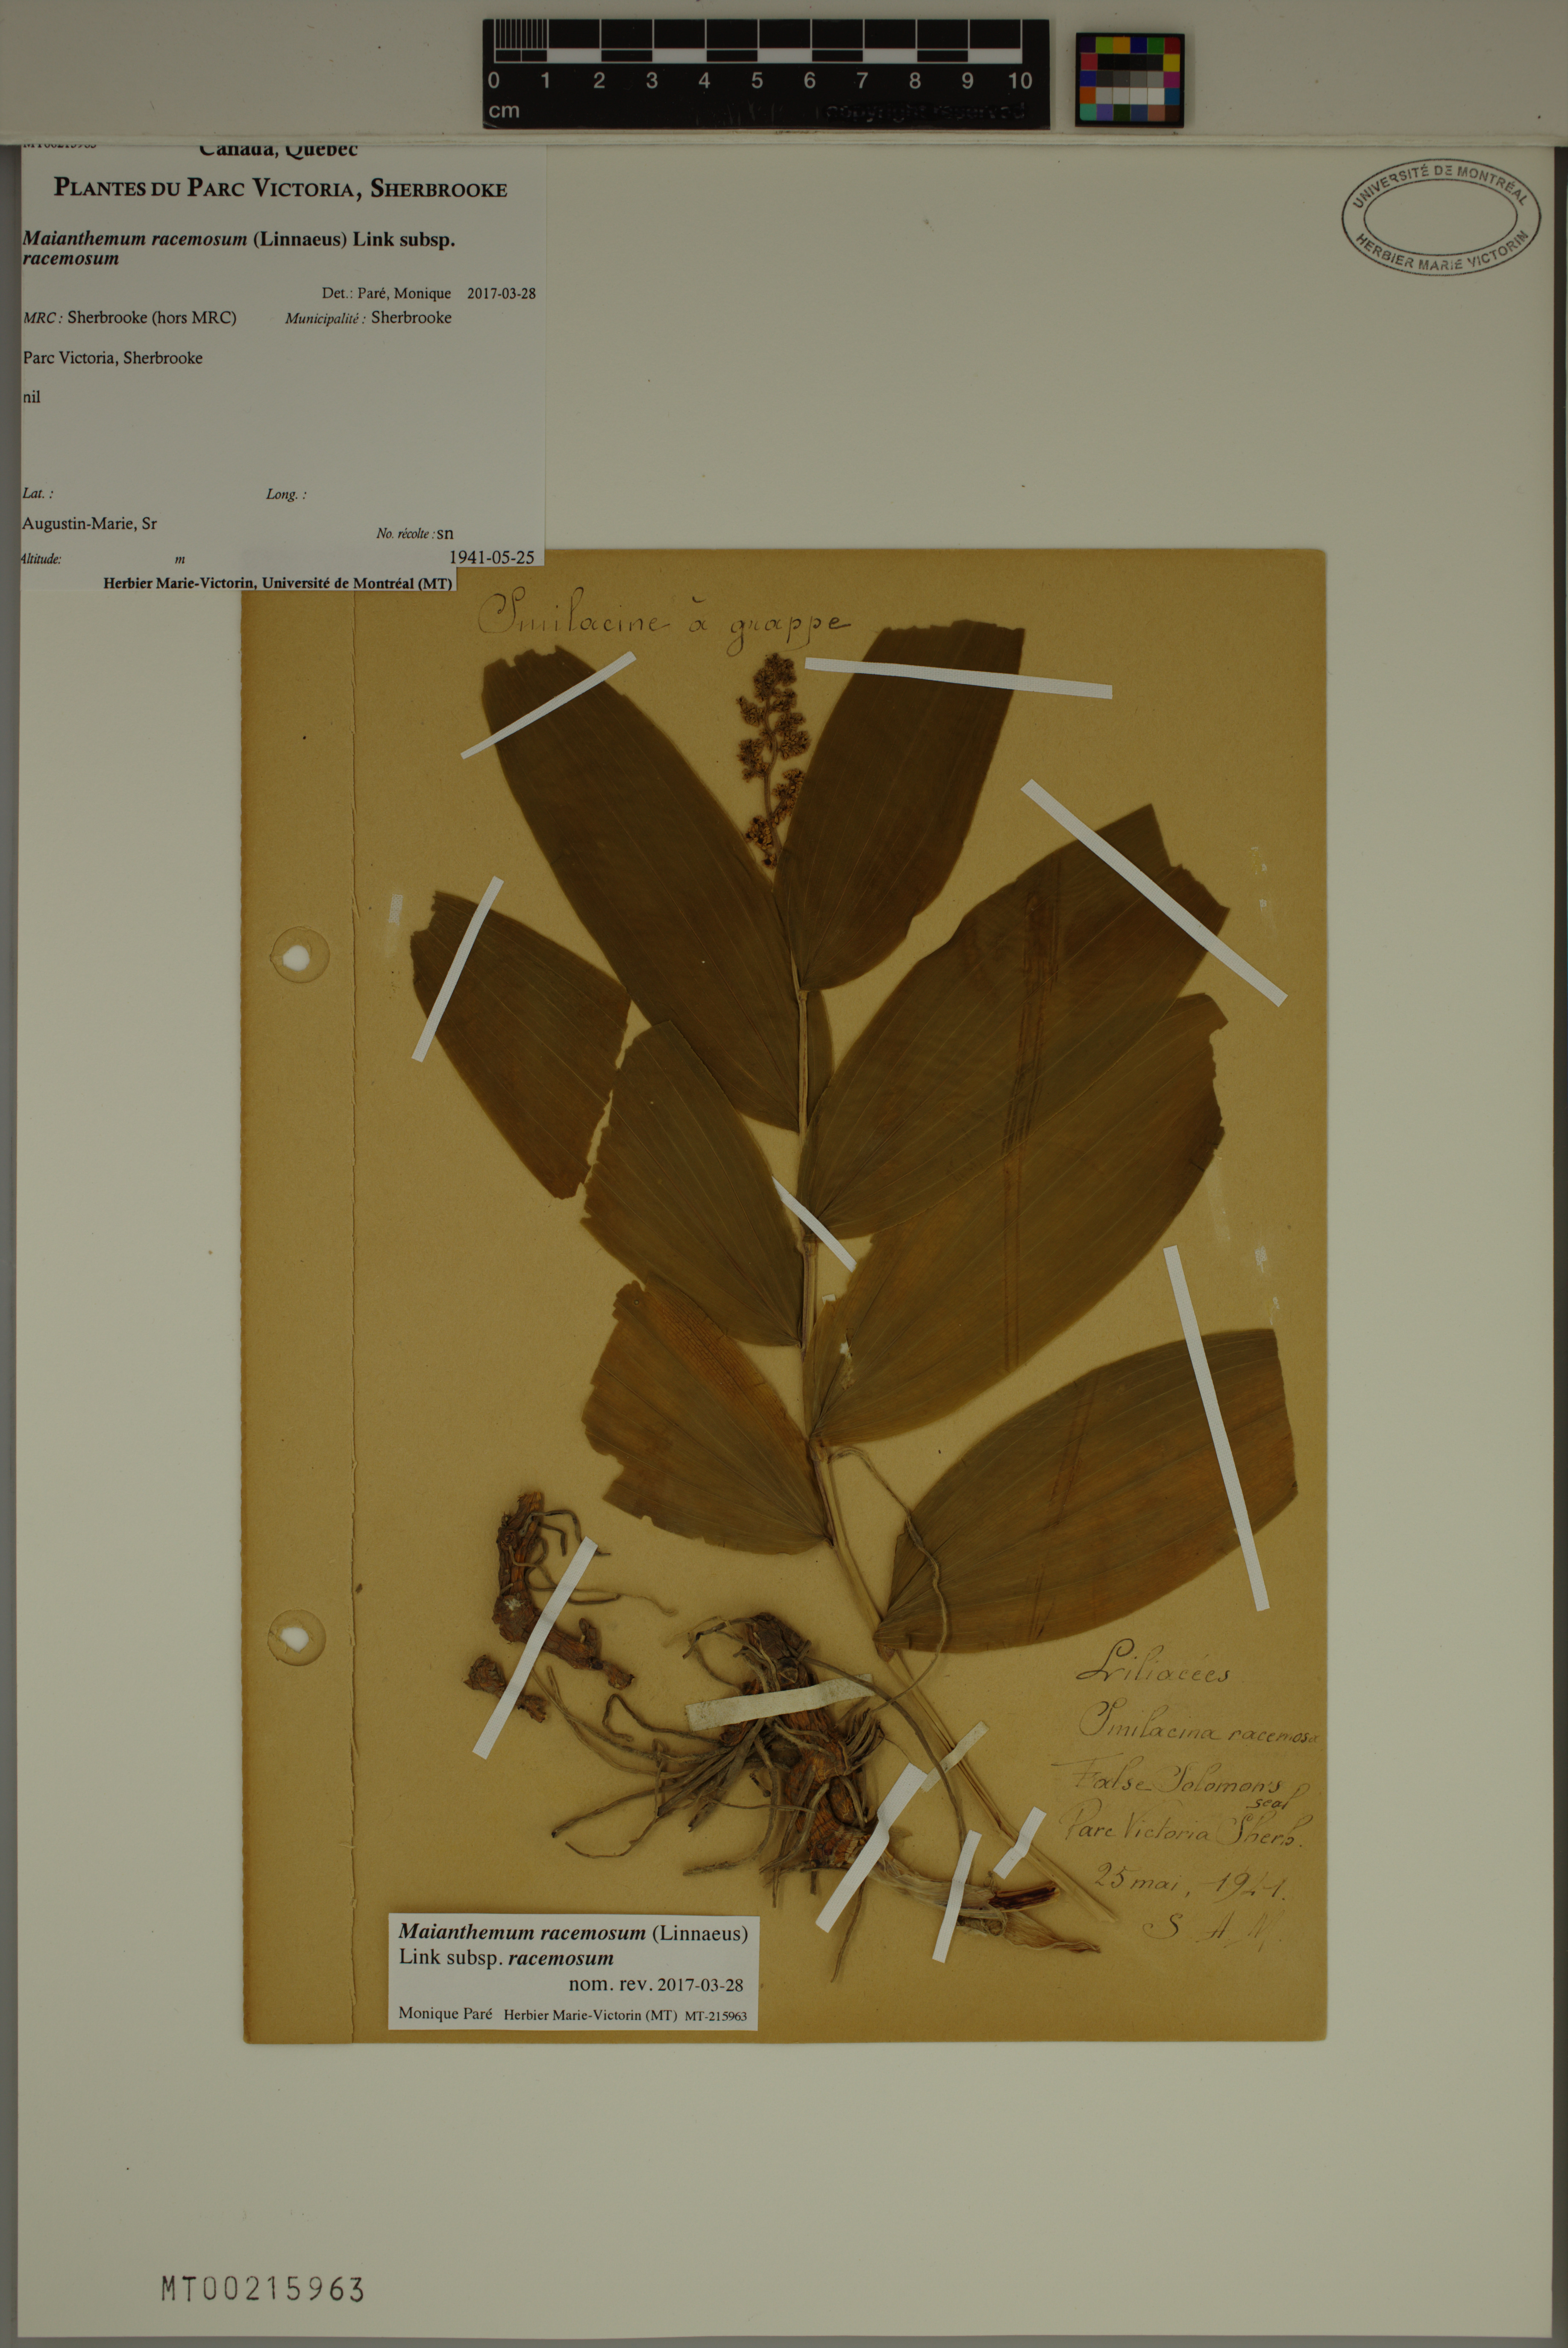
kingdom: Plantae
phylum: Tracheophyta
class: Liliopsida
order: Asparagales
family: Asparagaceae
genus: Maianthemum
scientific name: Maianthemum racemosum
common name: False spikenard
